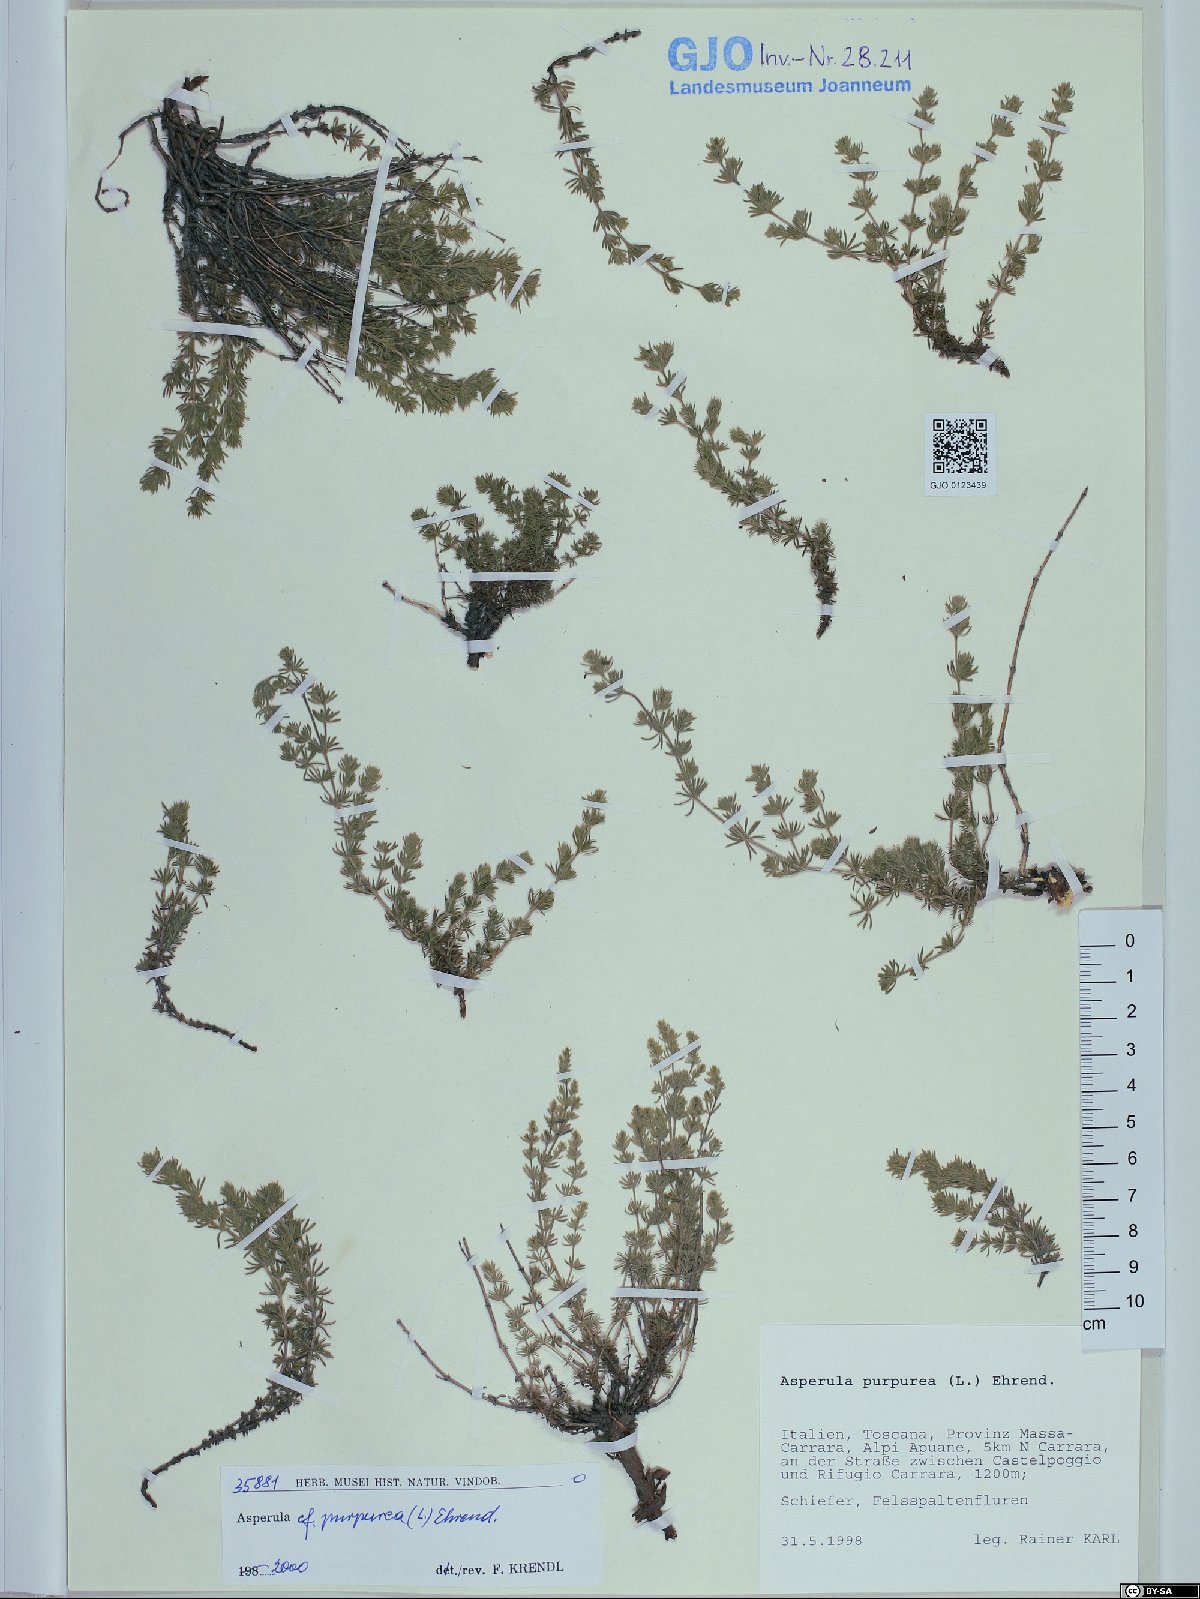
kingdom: Plantae
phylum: Tracheophyta
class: Magnoliopsida
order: Gentianales
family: Rubiaceae
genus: Thliphthisa
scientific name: Thliphthisa purpurea
